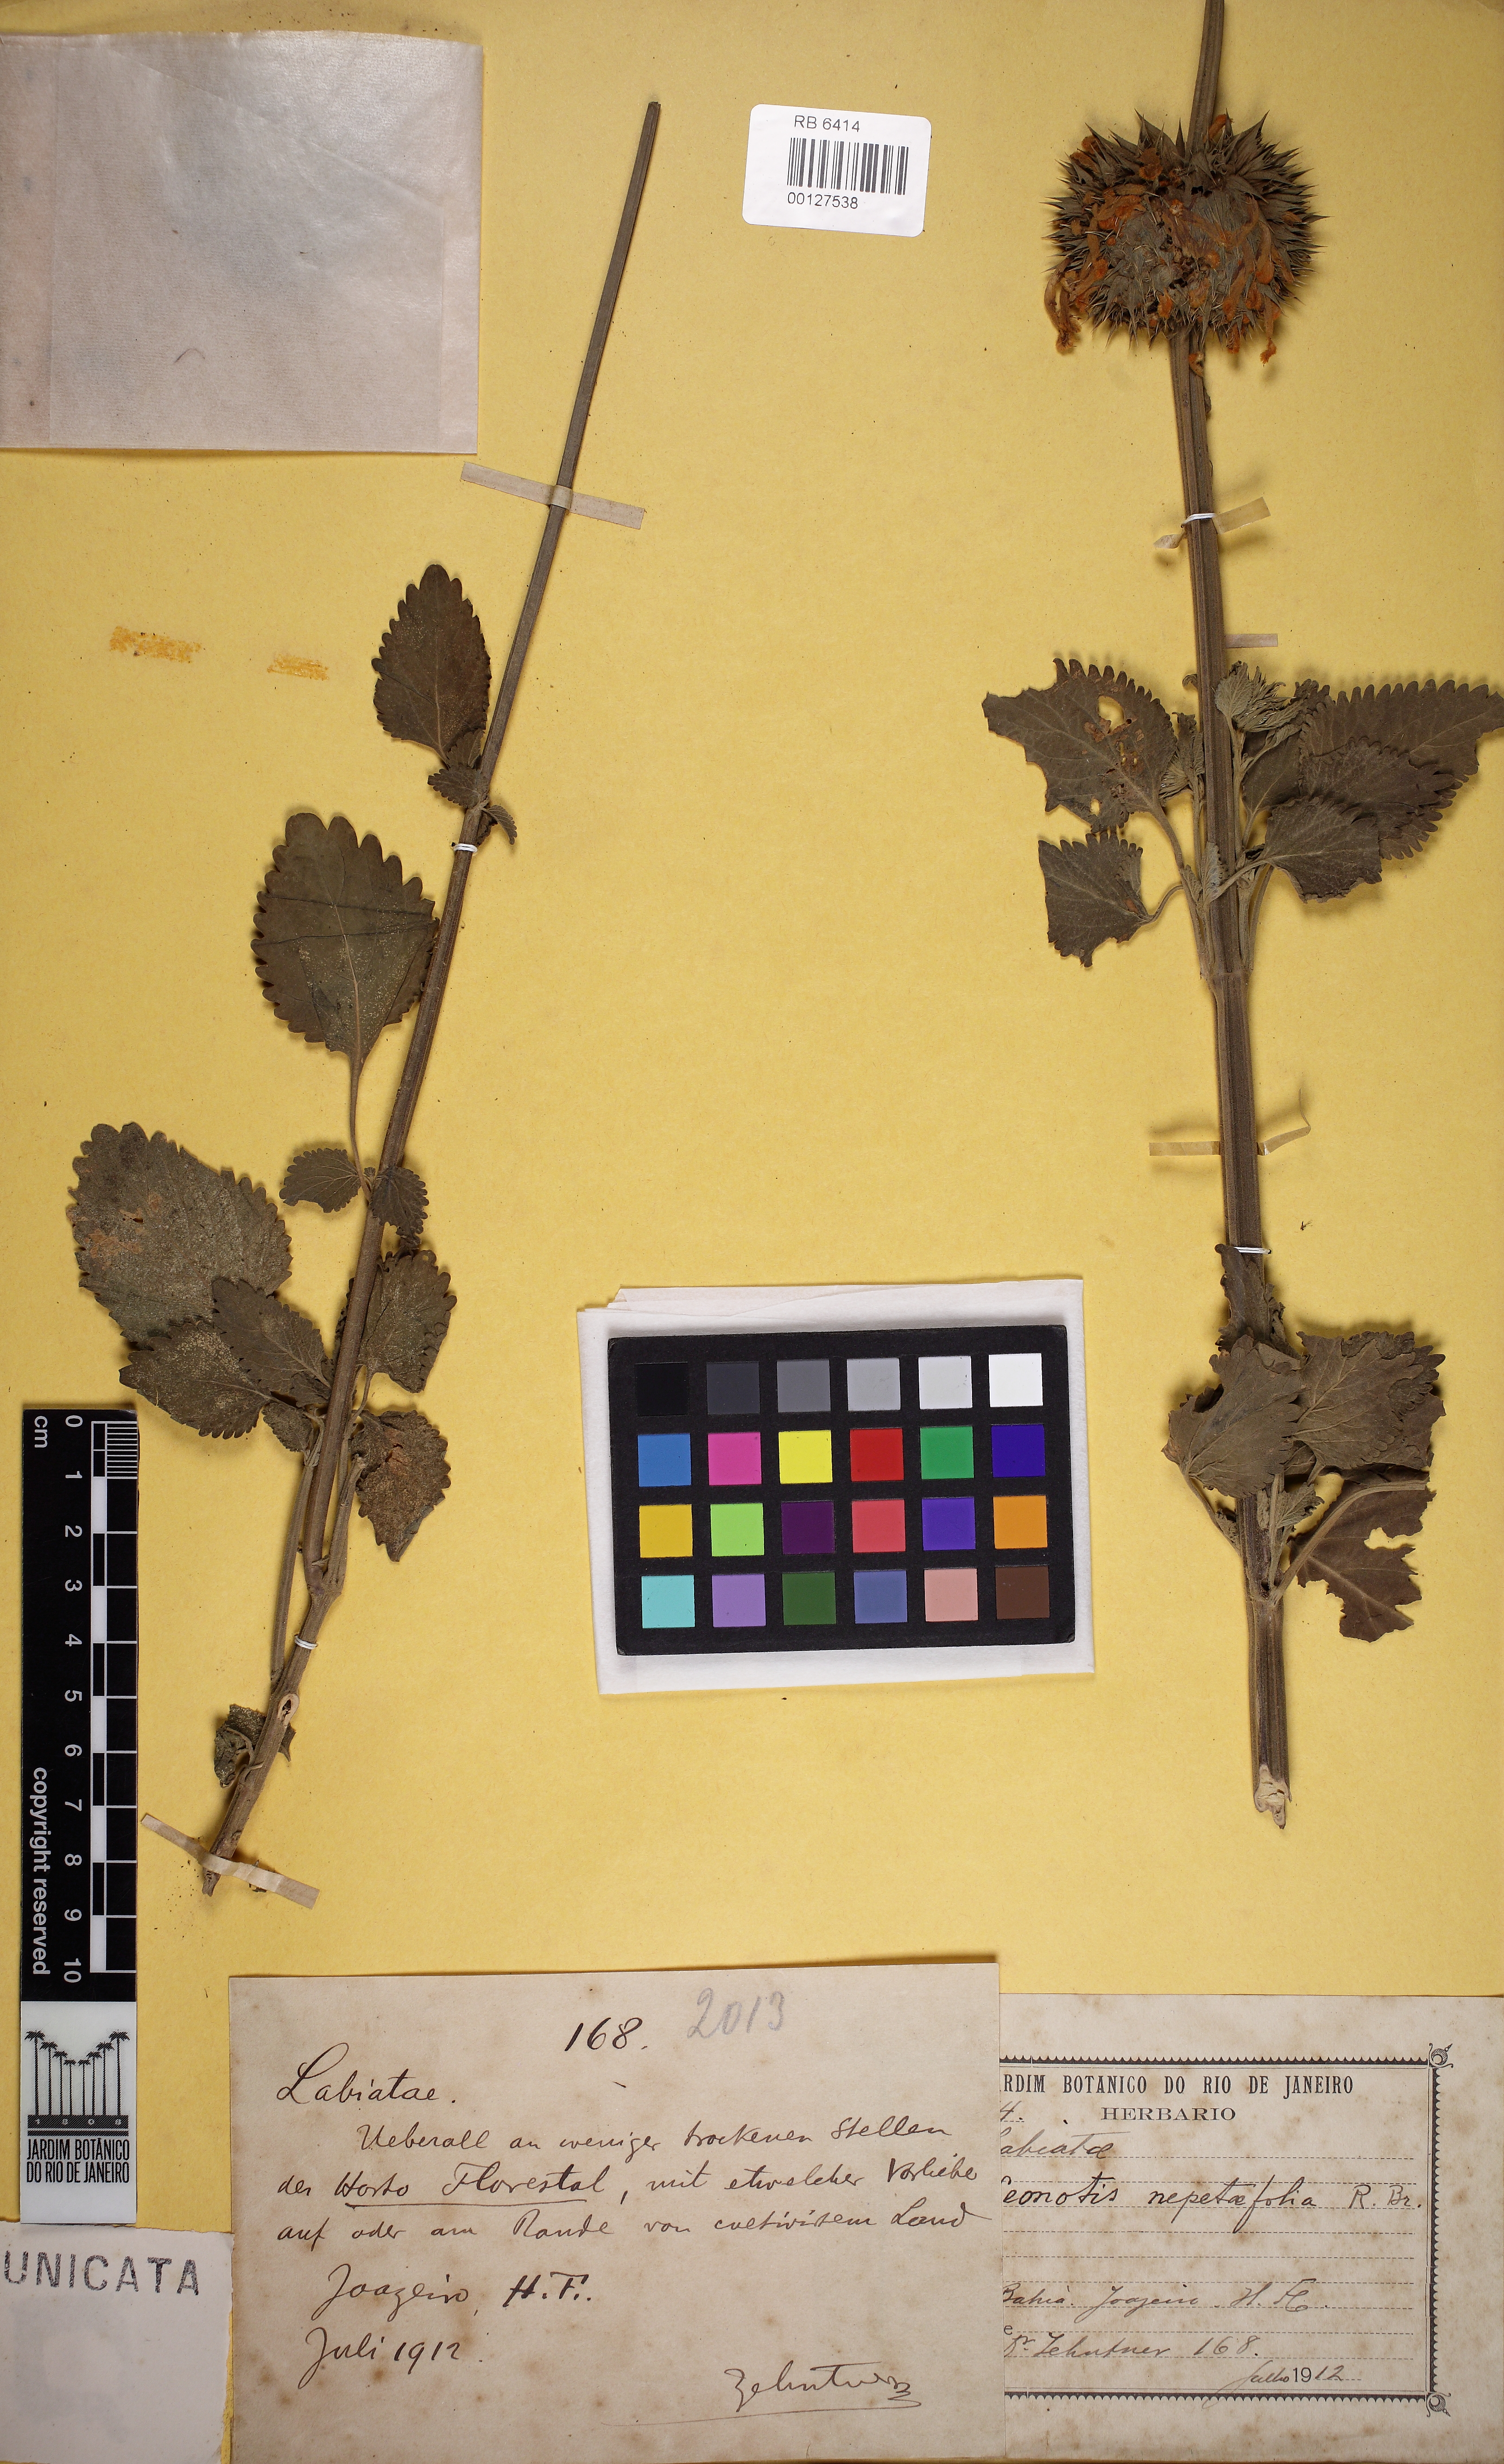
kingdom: Plantae
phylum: Tracheophyta
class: Magnoliopsida
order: Lamiales
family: Lamiaceae
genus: Leonotis
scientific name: Leonotis nepetifolia
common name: Christmas candlestick
